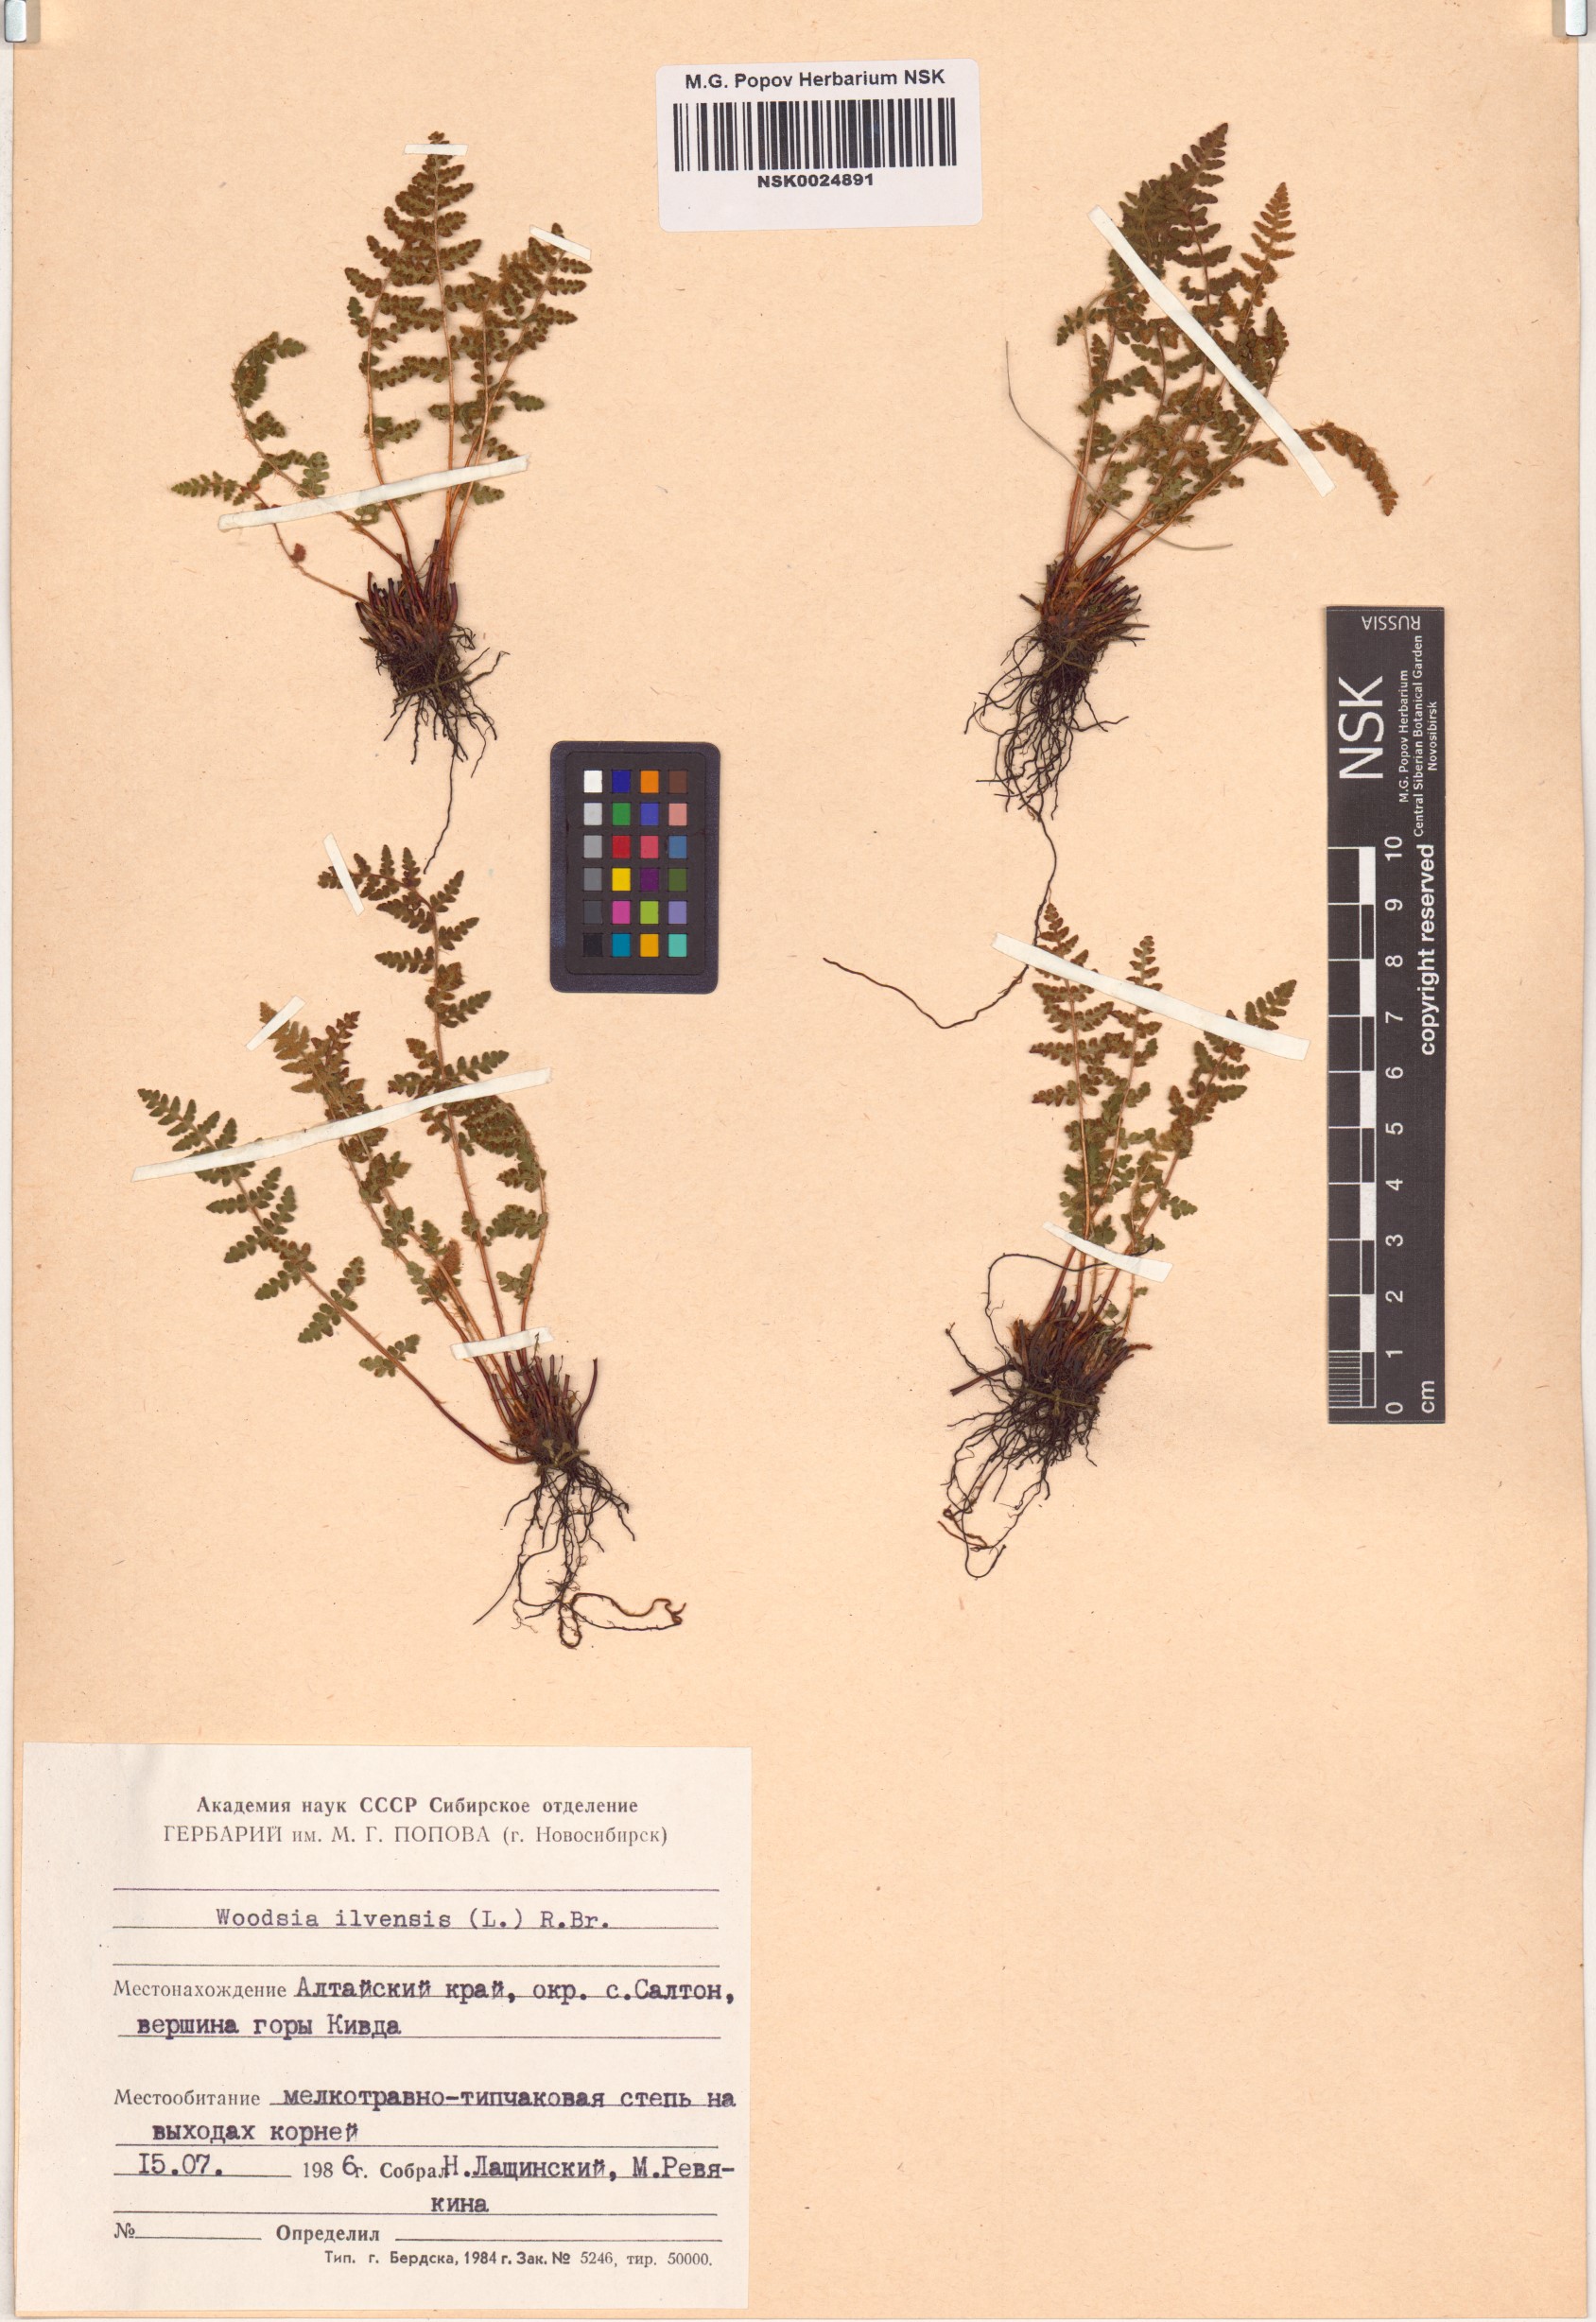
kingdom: Plantae
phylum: Tracheophyta
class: Polypodiopsida
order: Polypodiales
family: Woodsiaceae
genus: Woodsia
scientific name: Woodsia ilvensis
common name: Fragrant woodsia
